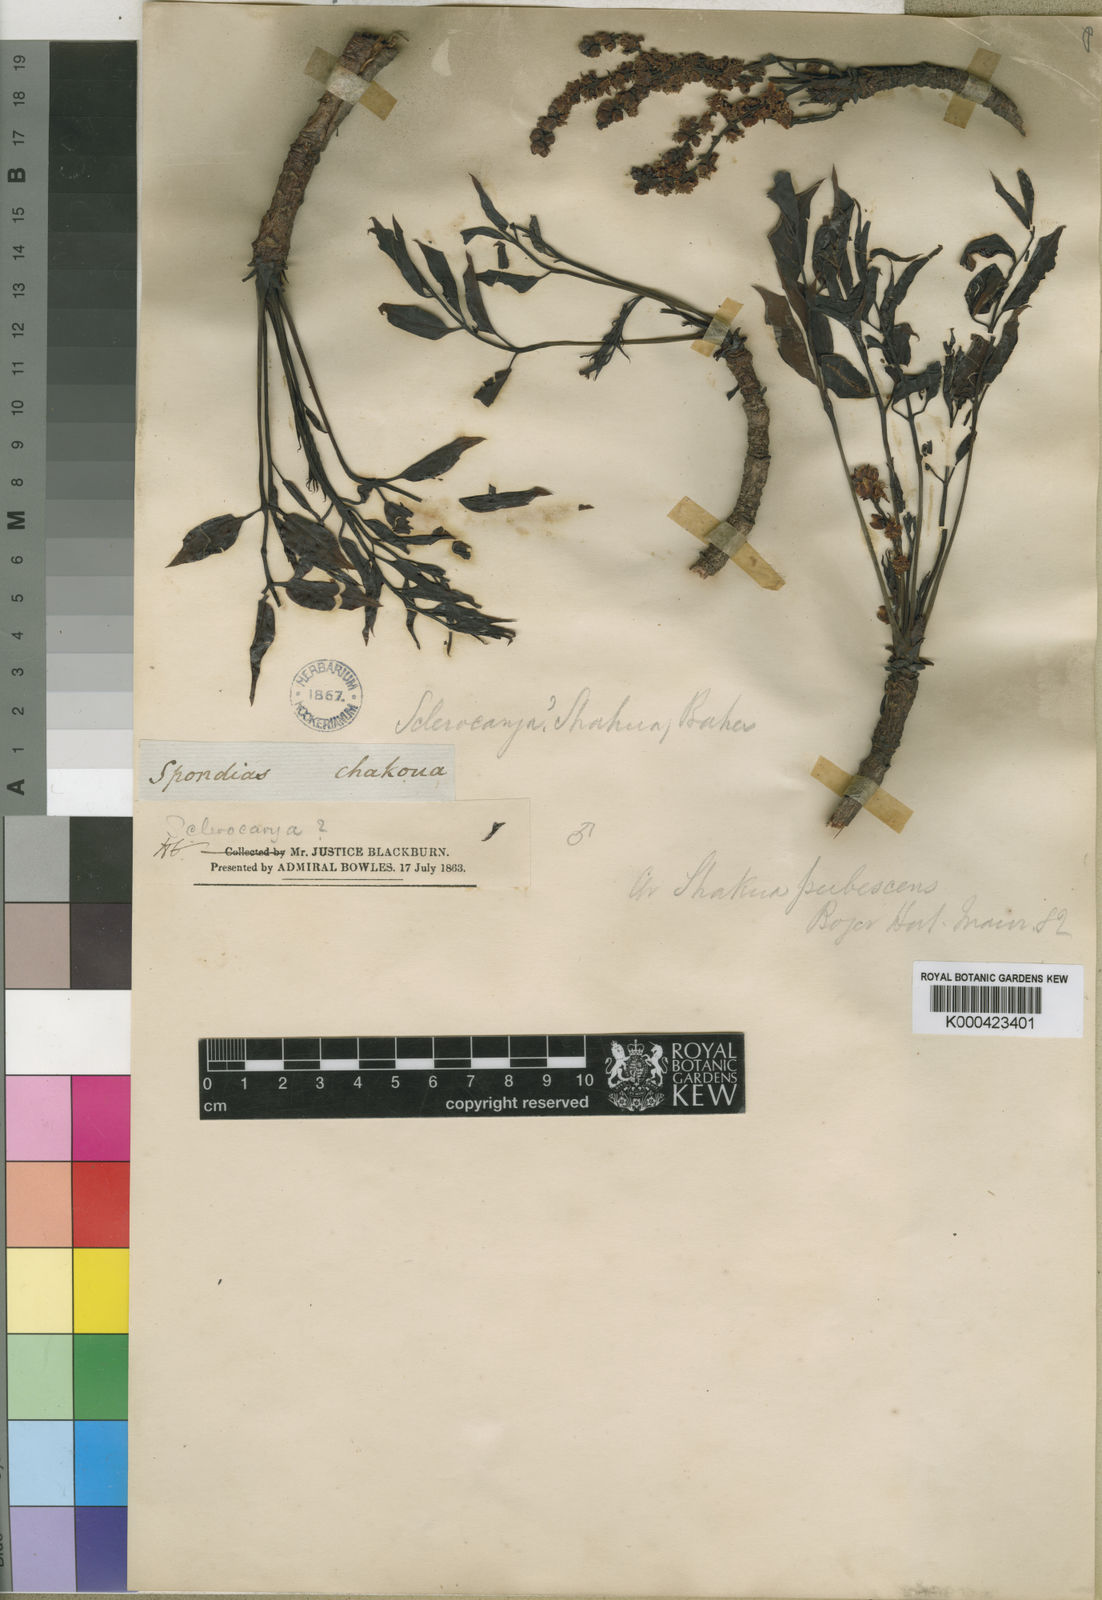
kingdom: Plantae
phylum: Tracheophyta
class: Magnoliopsida
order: Sapindales
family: Anacardiaceae
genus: Sclerocarya
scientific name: Sclerocarya birrea
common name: Marula
